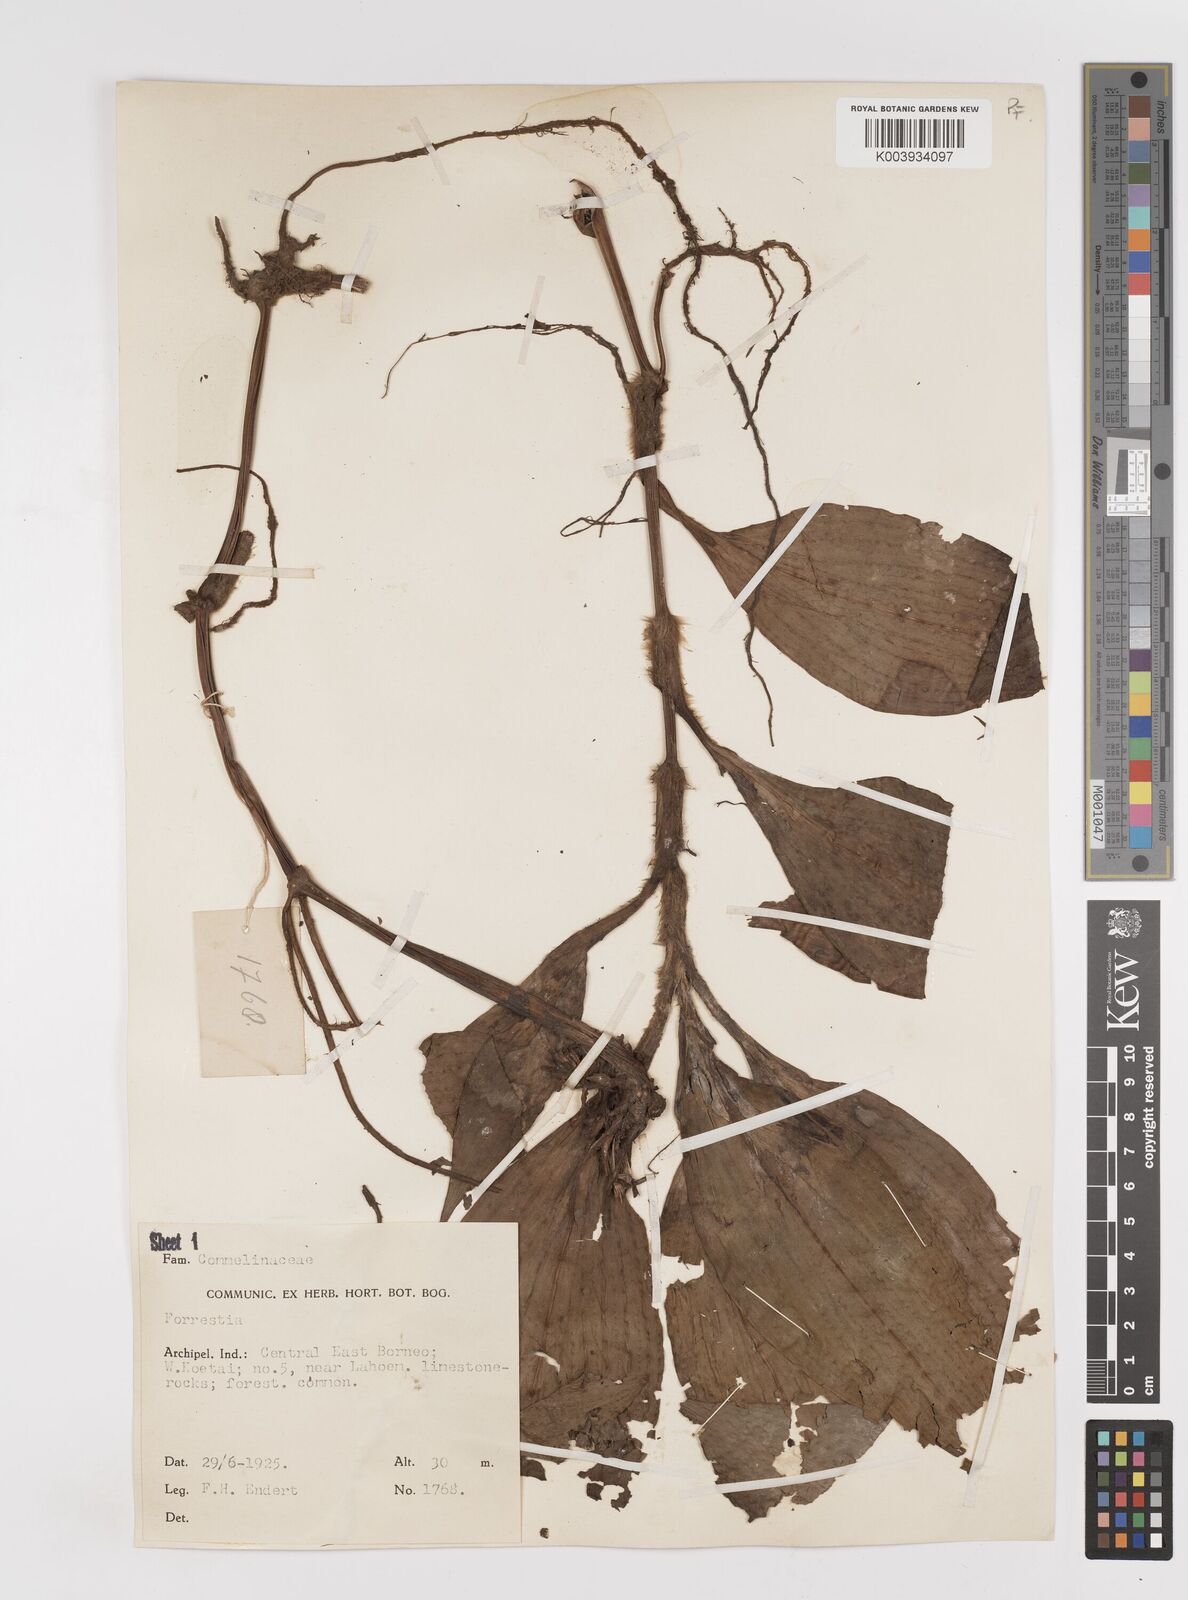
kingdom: Plantae
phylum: Tracheophyta
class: Liliopsida
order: Commelinales
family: Commelinaceae
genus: Amischotolype
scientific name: Amischotolype
